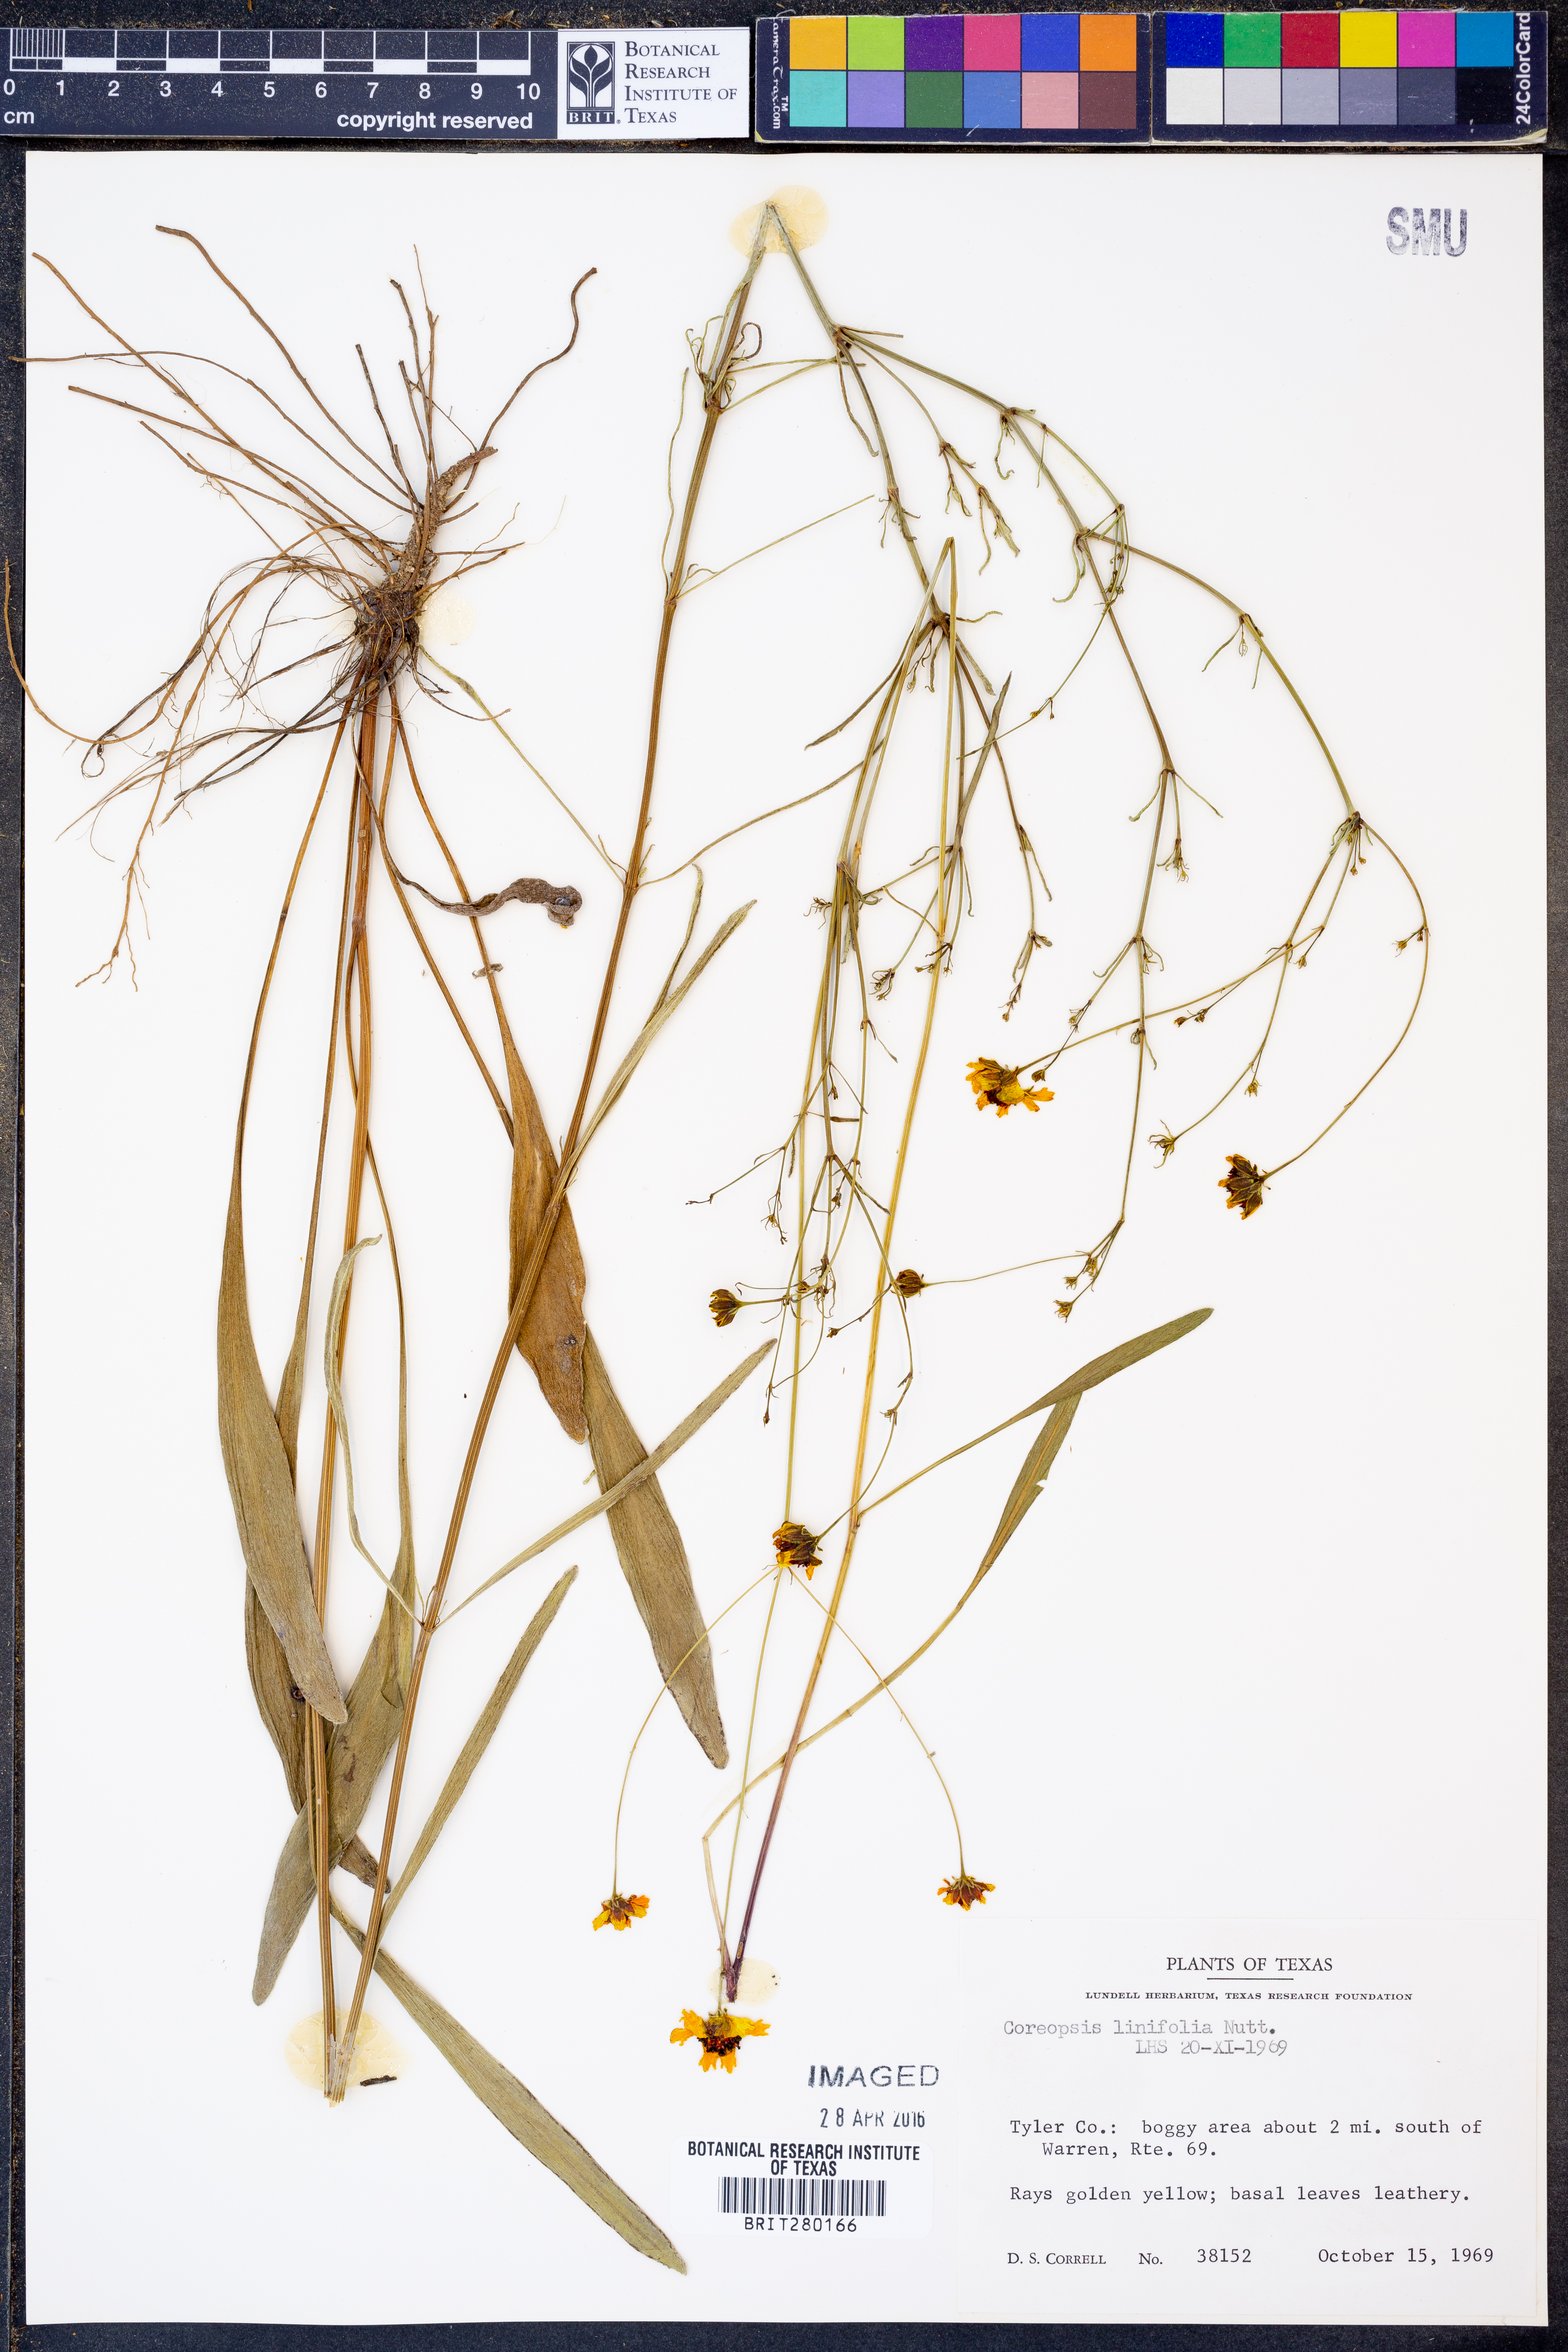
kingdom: Plantae
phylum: Tracheophyta
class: Magnoliopsida
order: Asterales
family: Asteraceae
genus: Coreopsis
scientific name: Coreopsis gladiata
